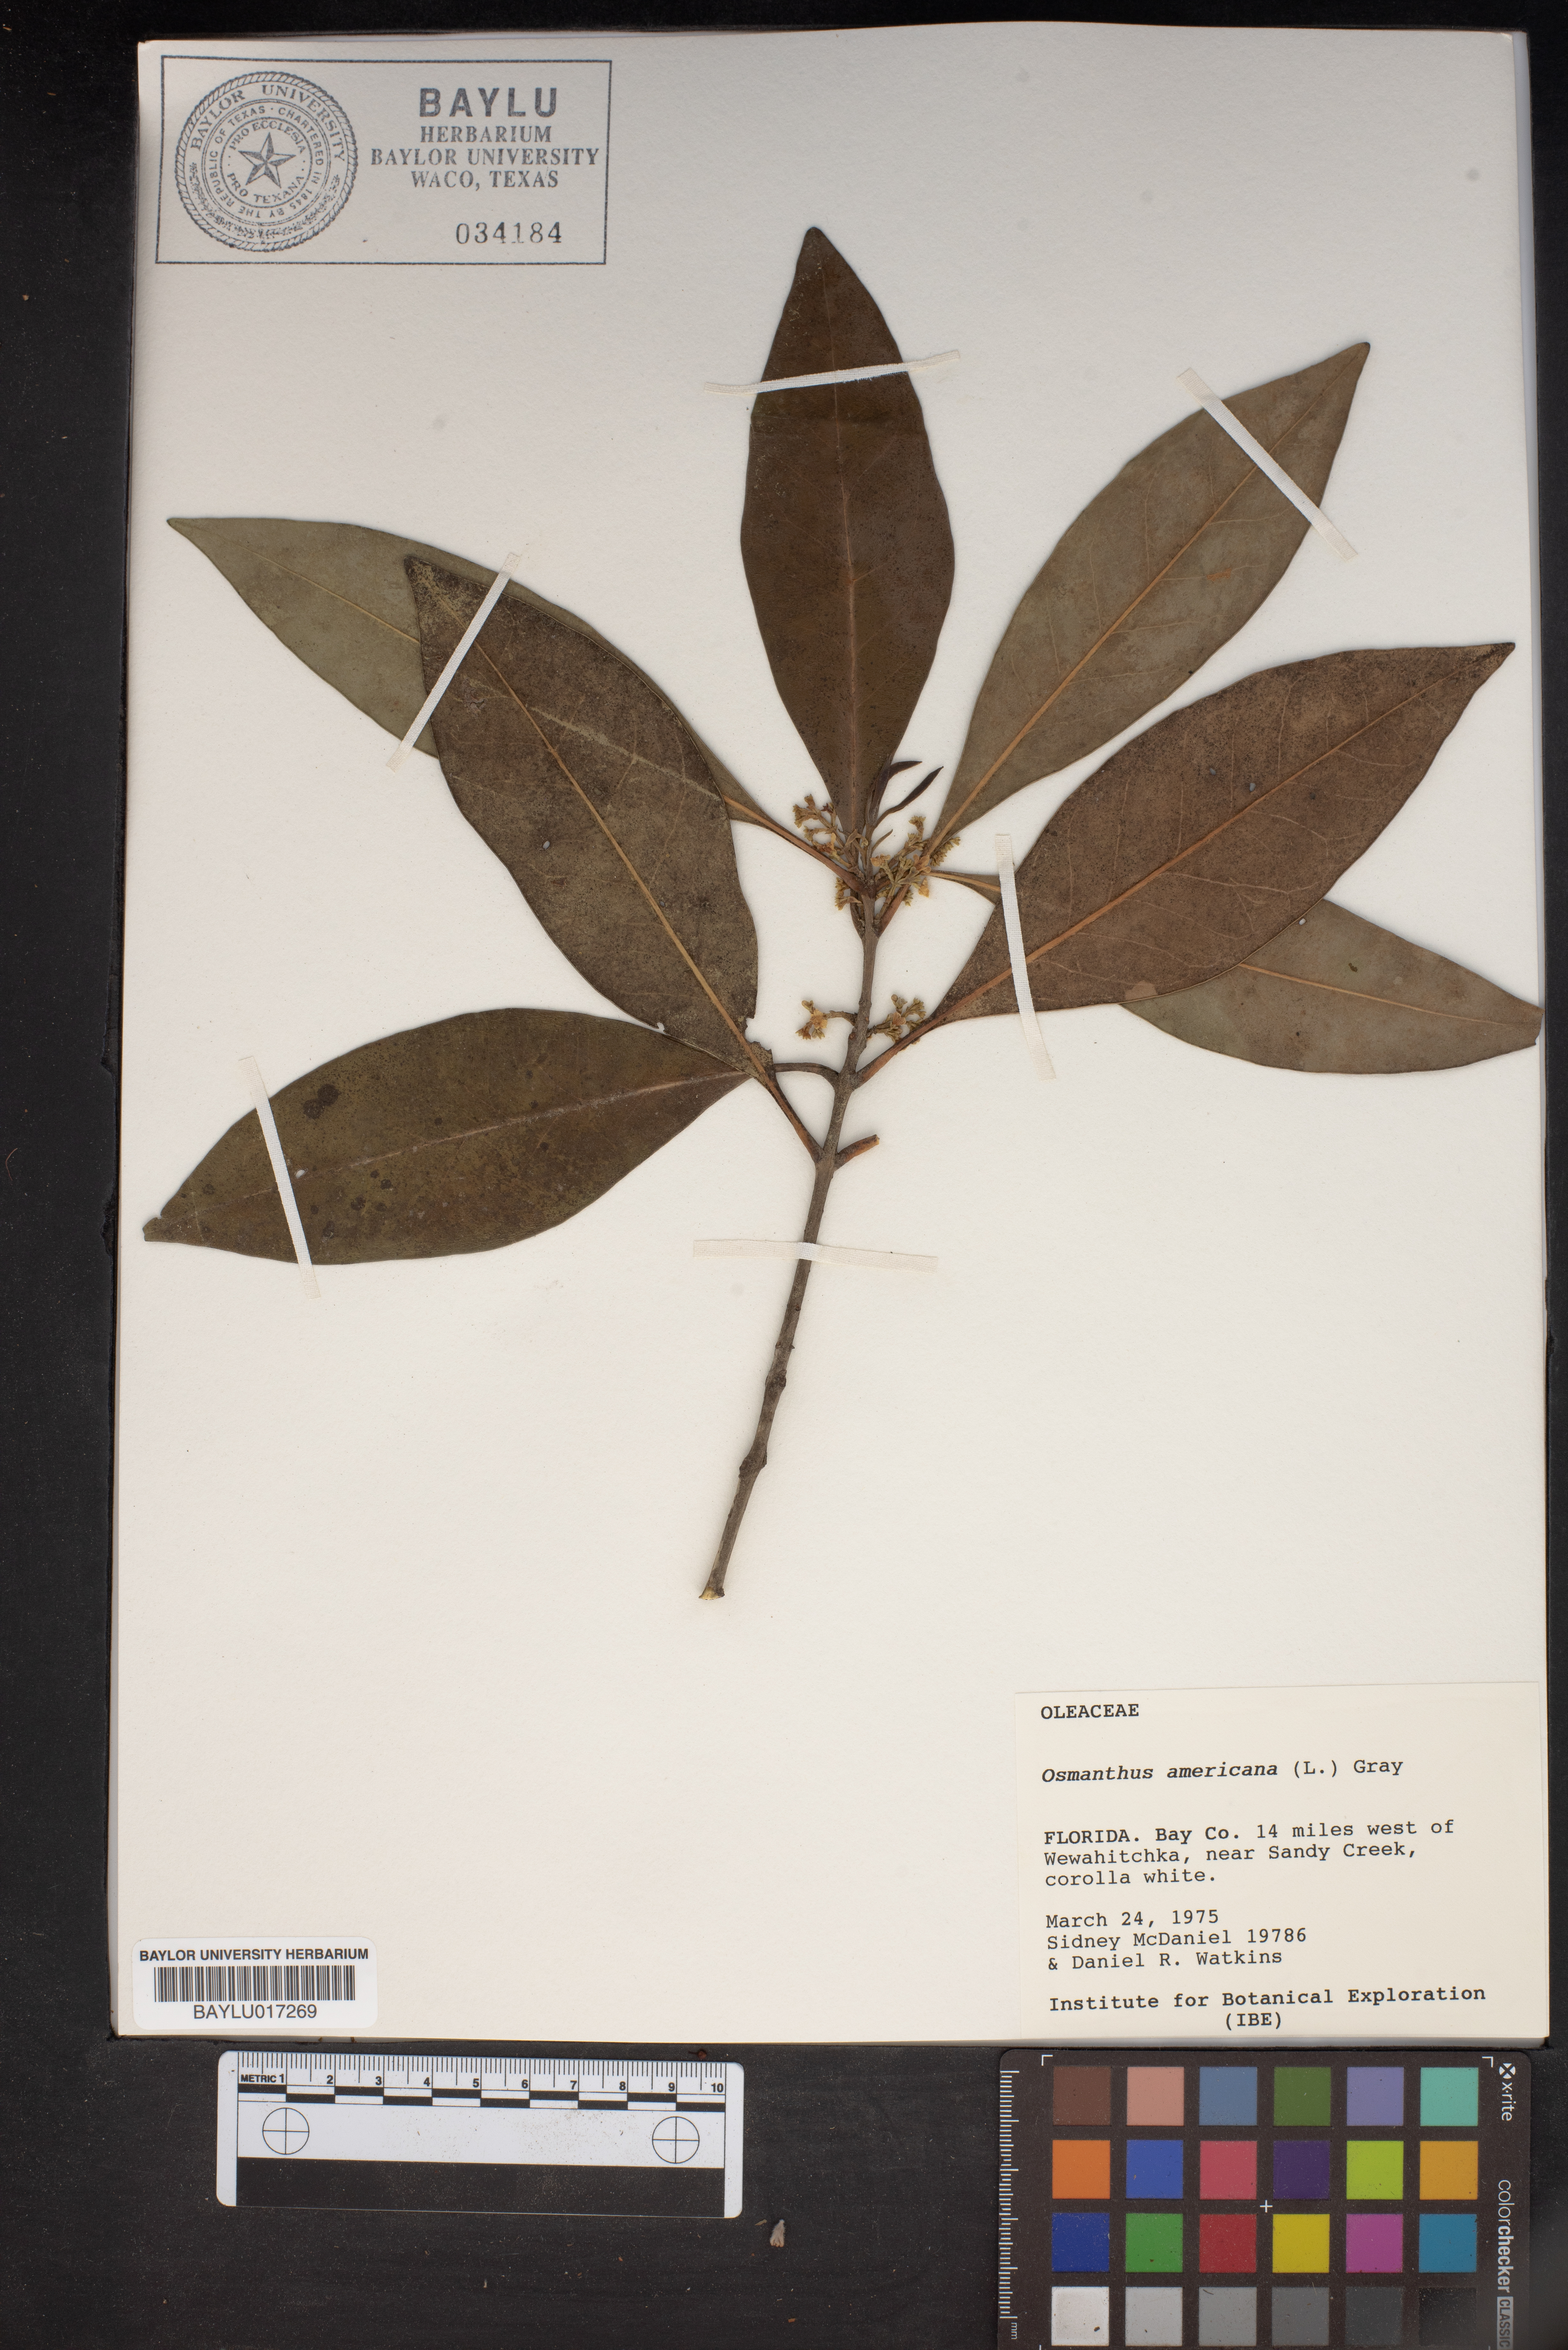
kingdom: Plantae
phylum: Tracheophyta
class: Magnoliopsida
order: Lamiales
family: Oleaceae
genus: Osmanthus
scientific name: Osmanthus americanus
